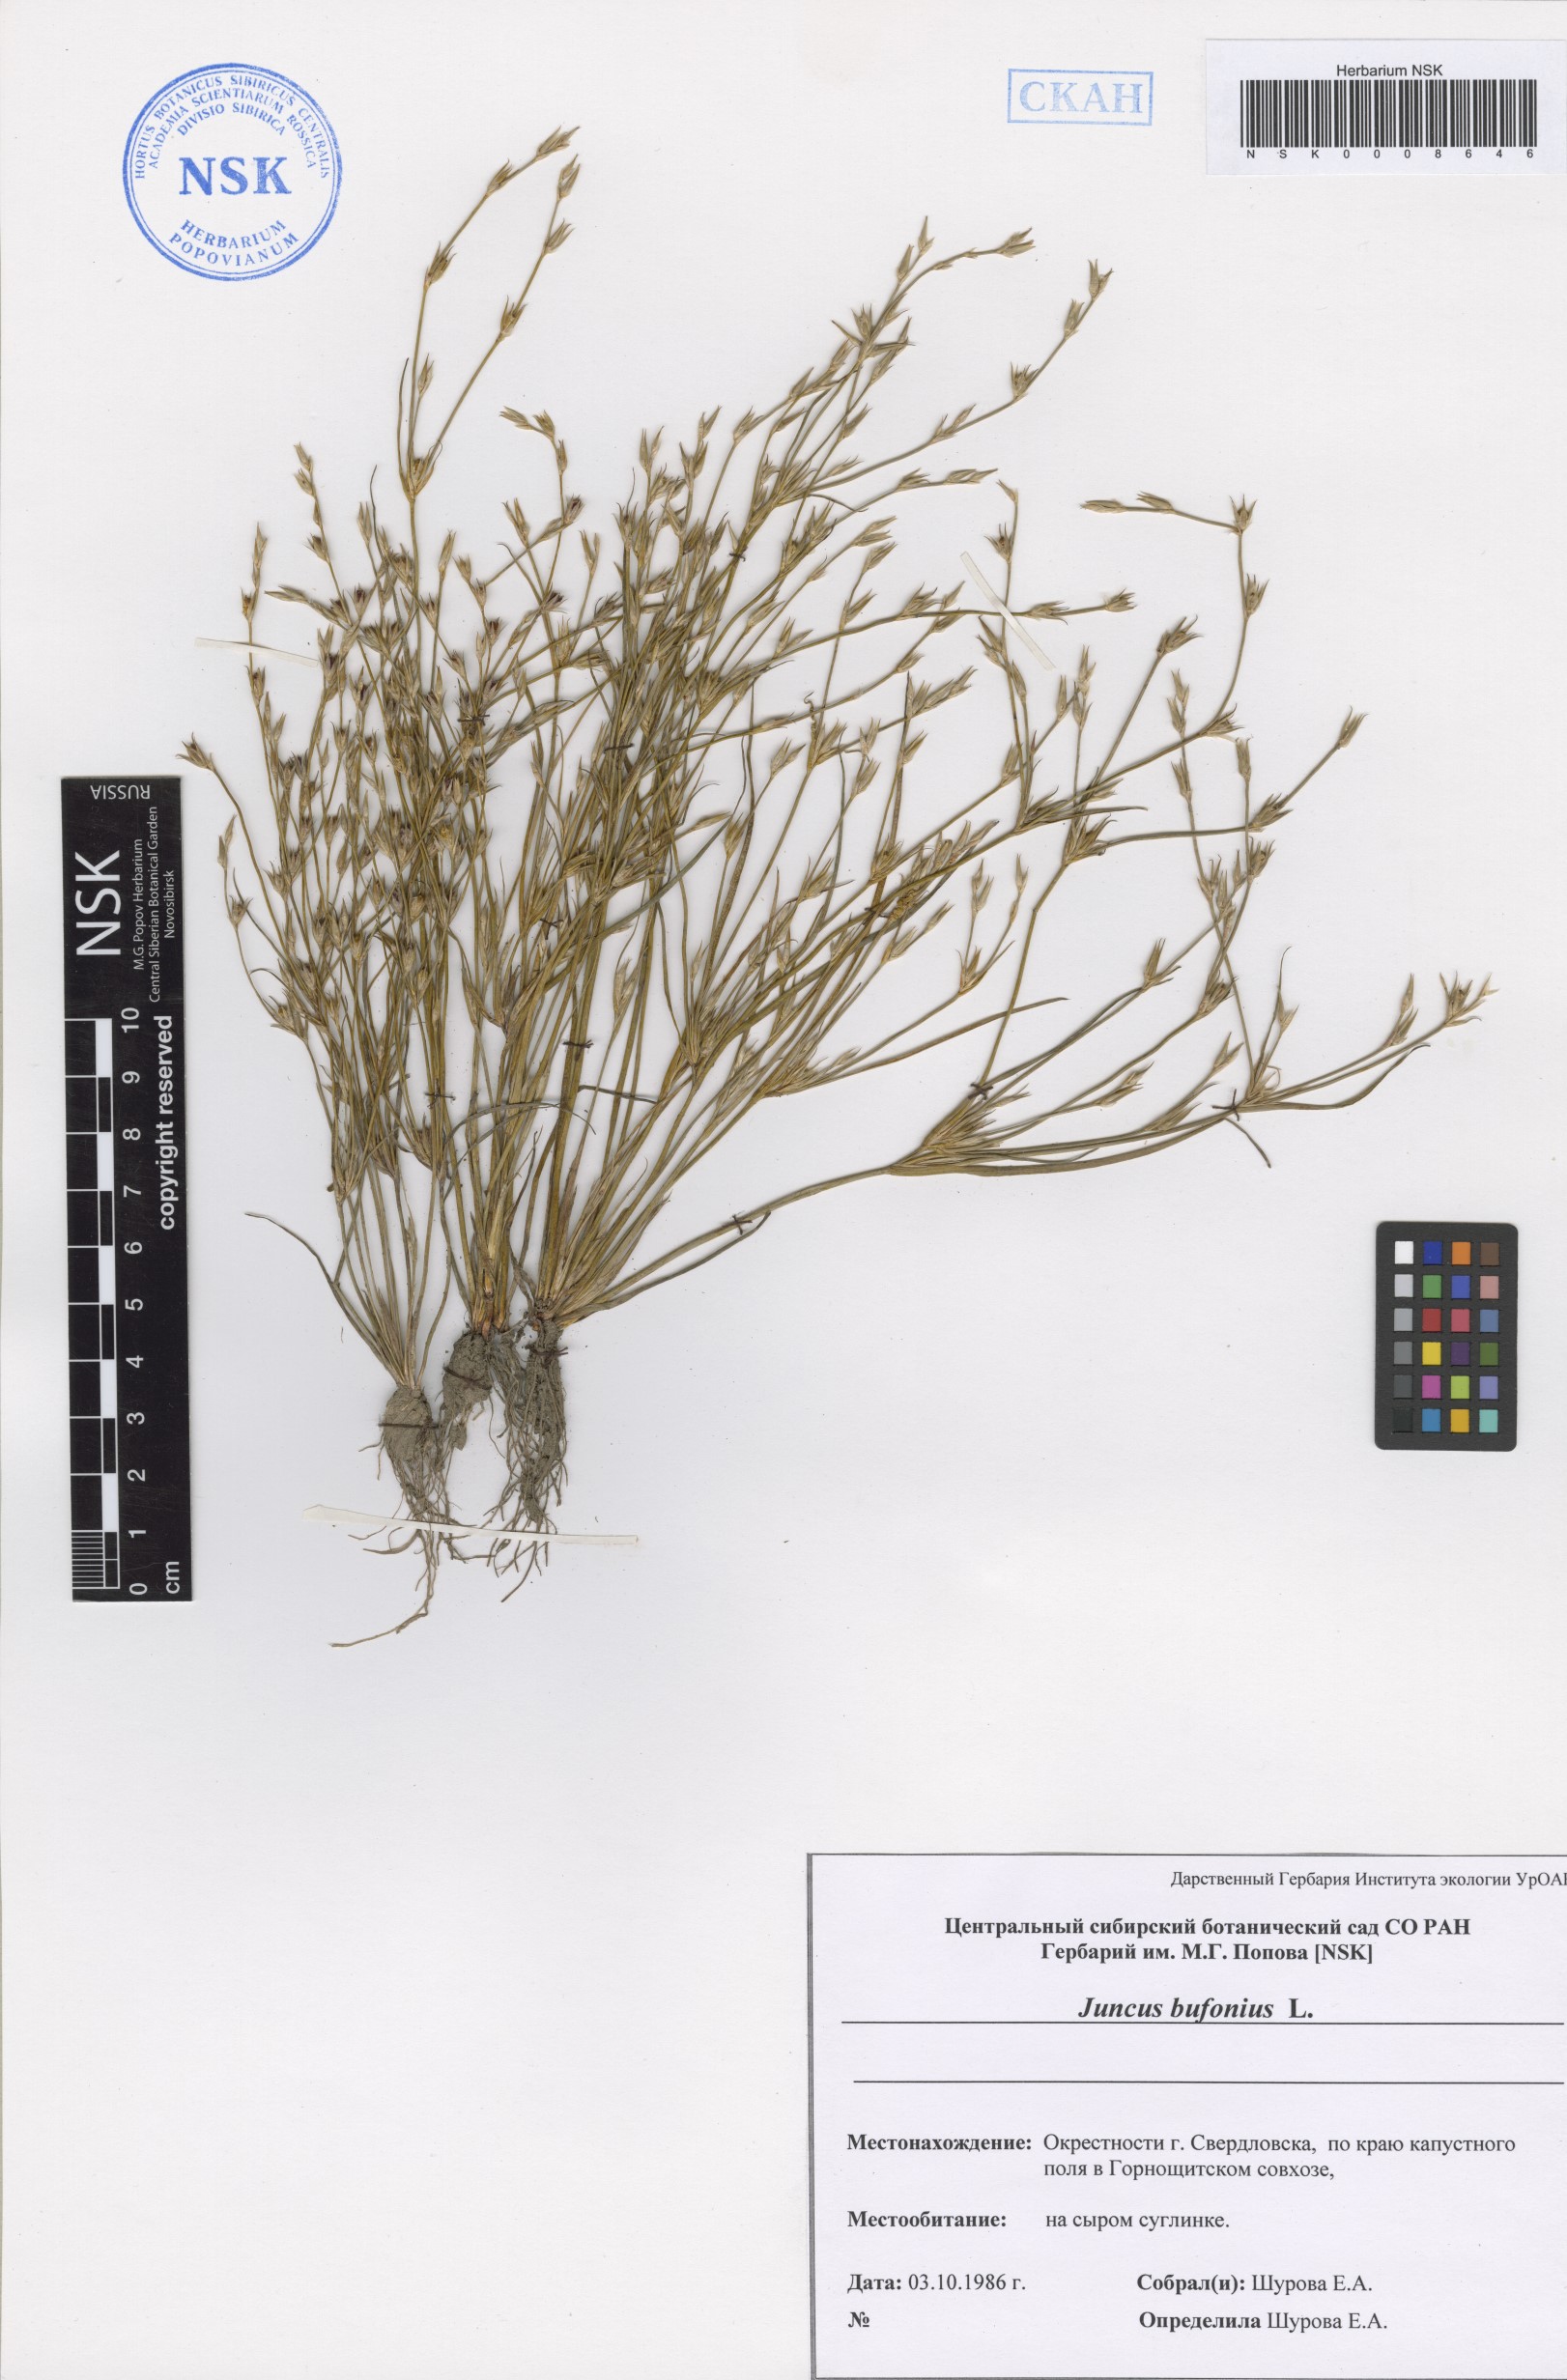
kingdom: Plantae
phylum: Tracheophyta
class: Liliopsida
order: Poales
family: Juncaceae
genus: Juncus
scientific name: Juncus bufonius
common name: Toad rush
